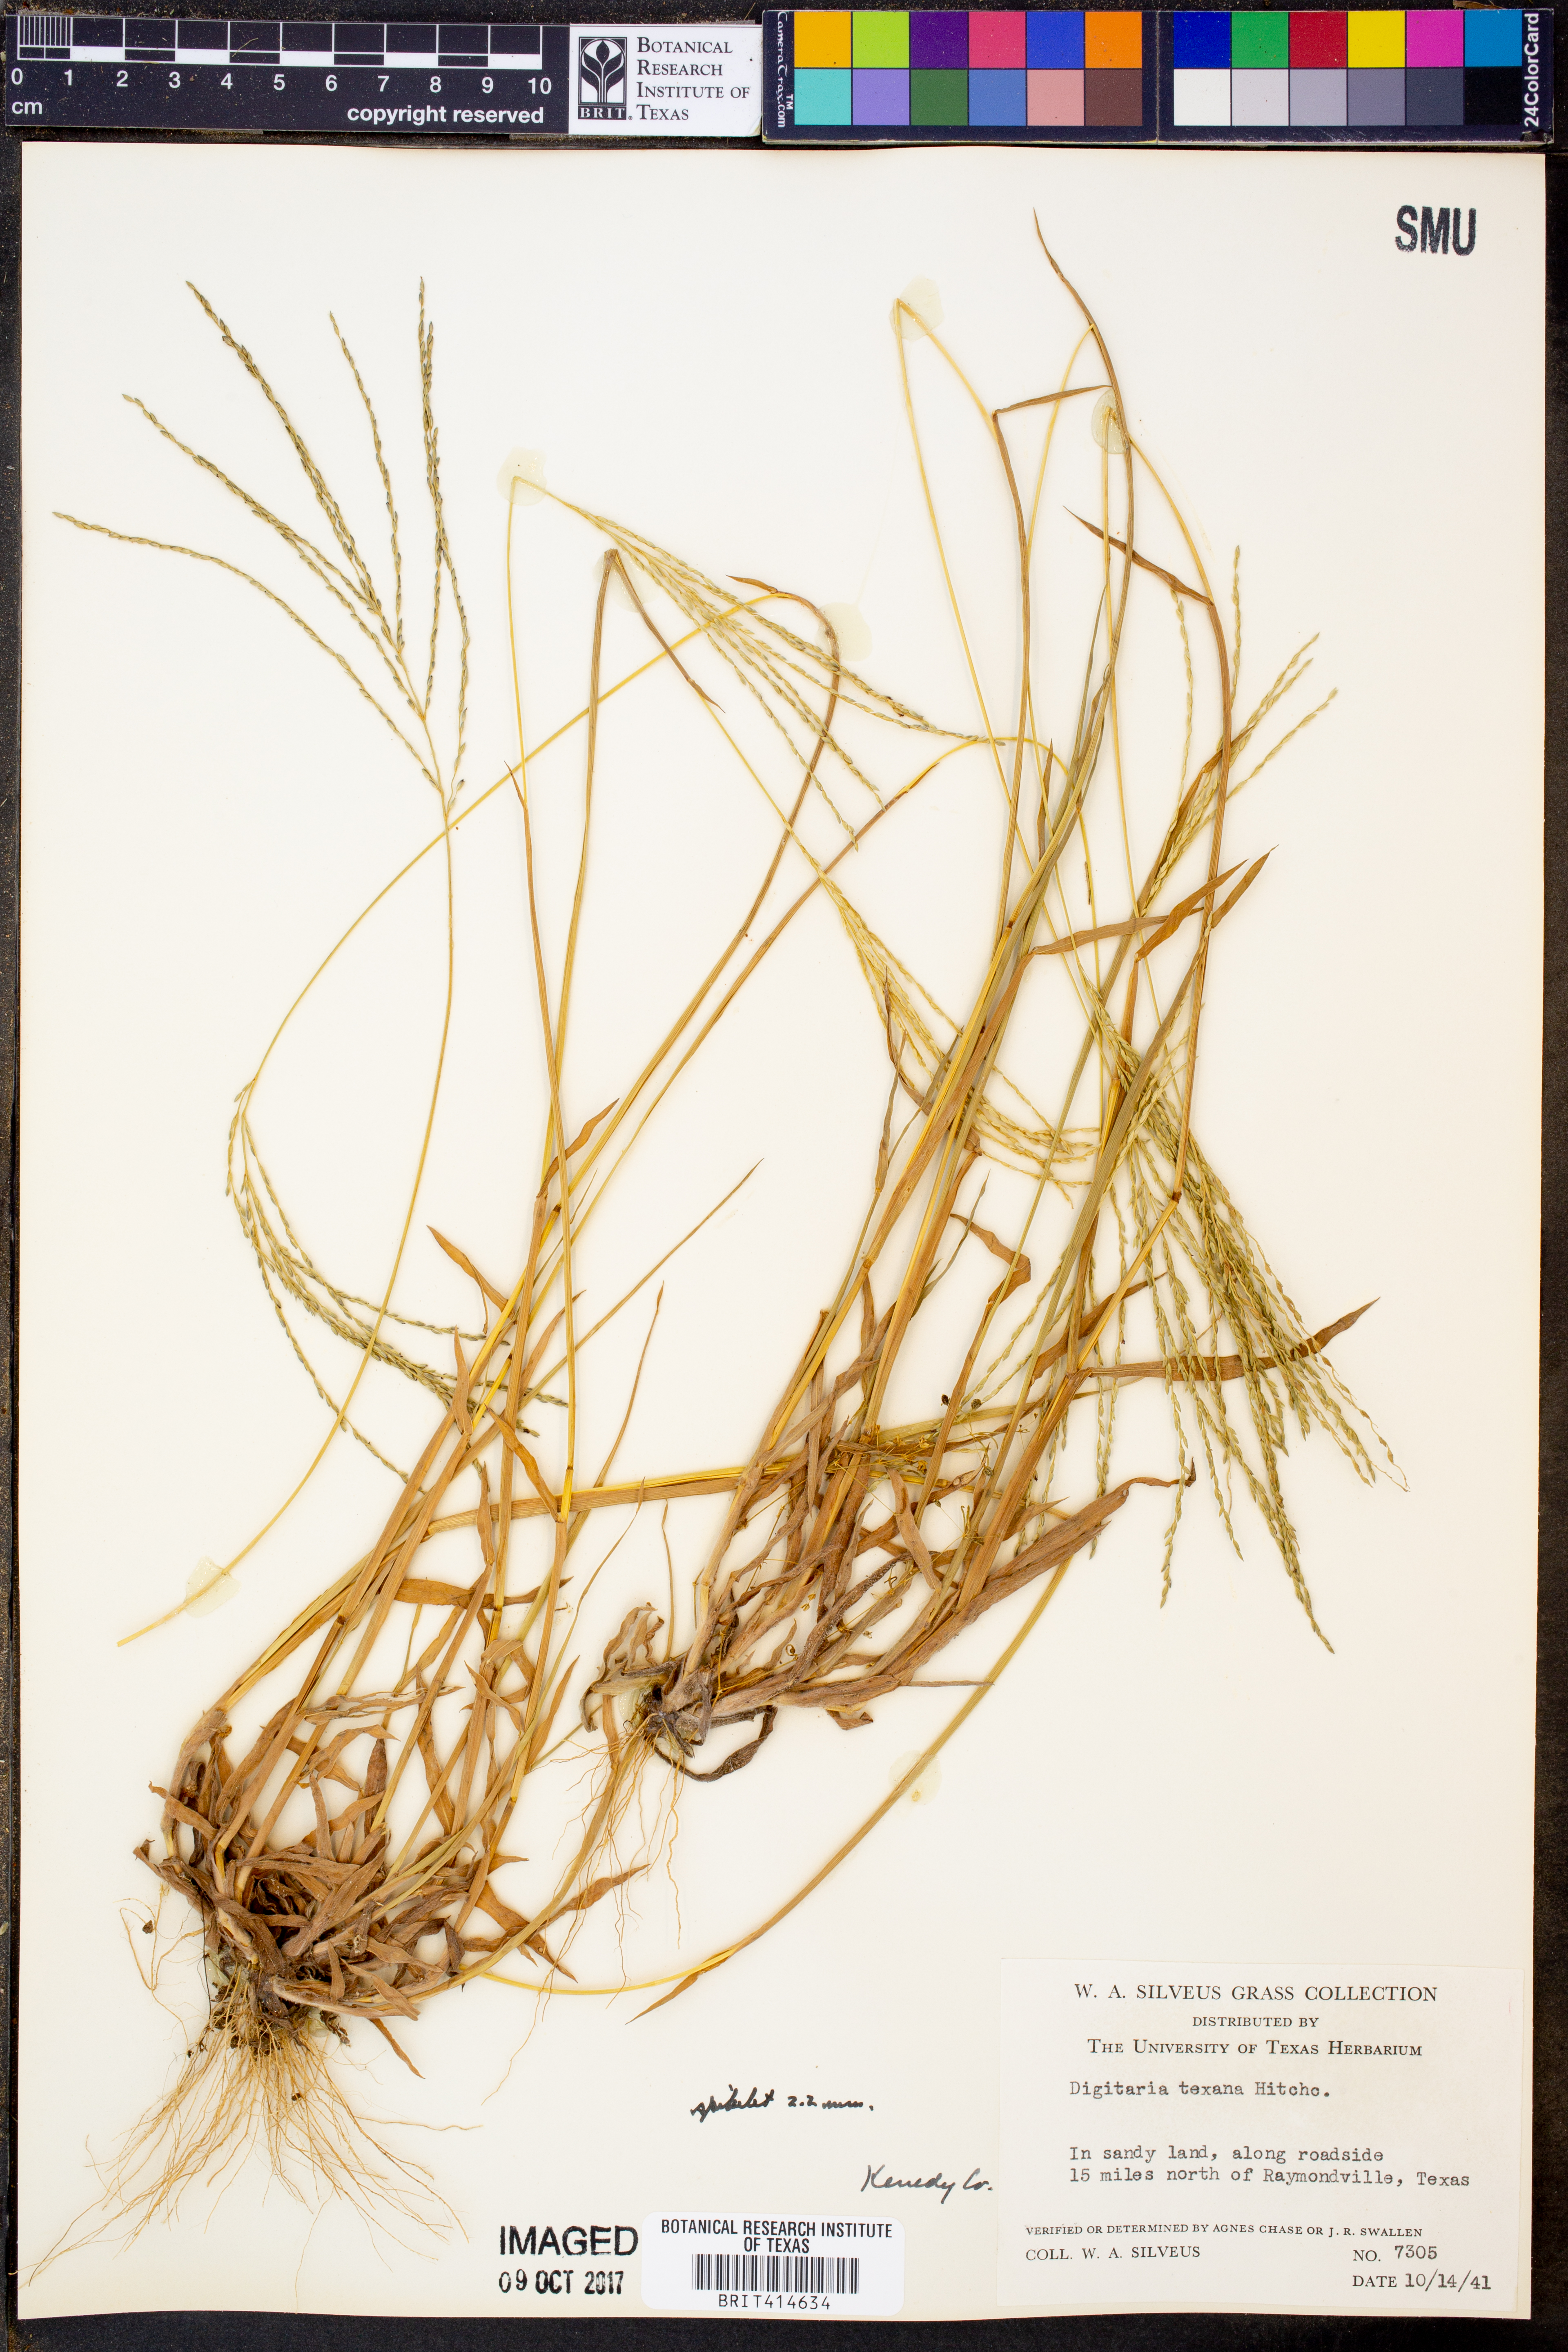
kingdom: Plantae
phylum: Tracheophyta
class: Liliopsida
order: Poales
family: Poaceae
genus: Digitaria
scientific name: Digitaria texana
